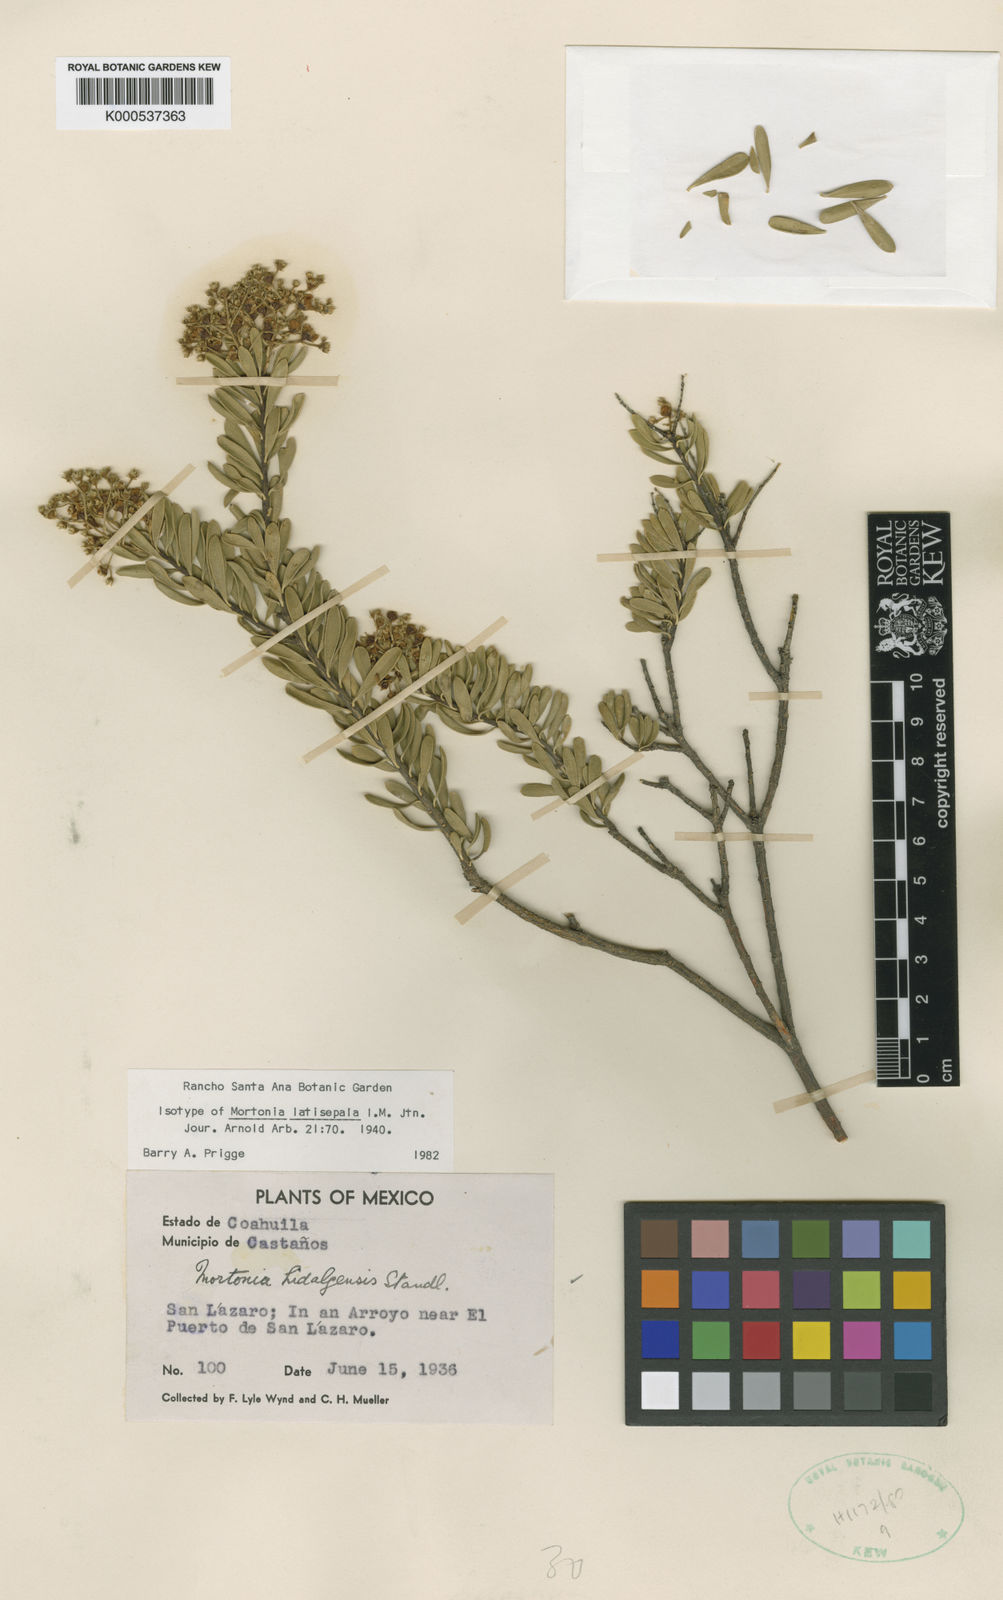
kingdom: Plantae
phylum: Tracheophyta
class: Magnoliopsida
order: Celastrales
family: Celastraceae
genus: Mortonia
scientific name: Mortonia latisepala
